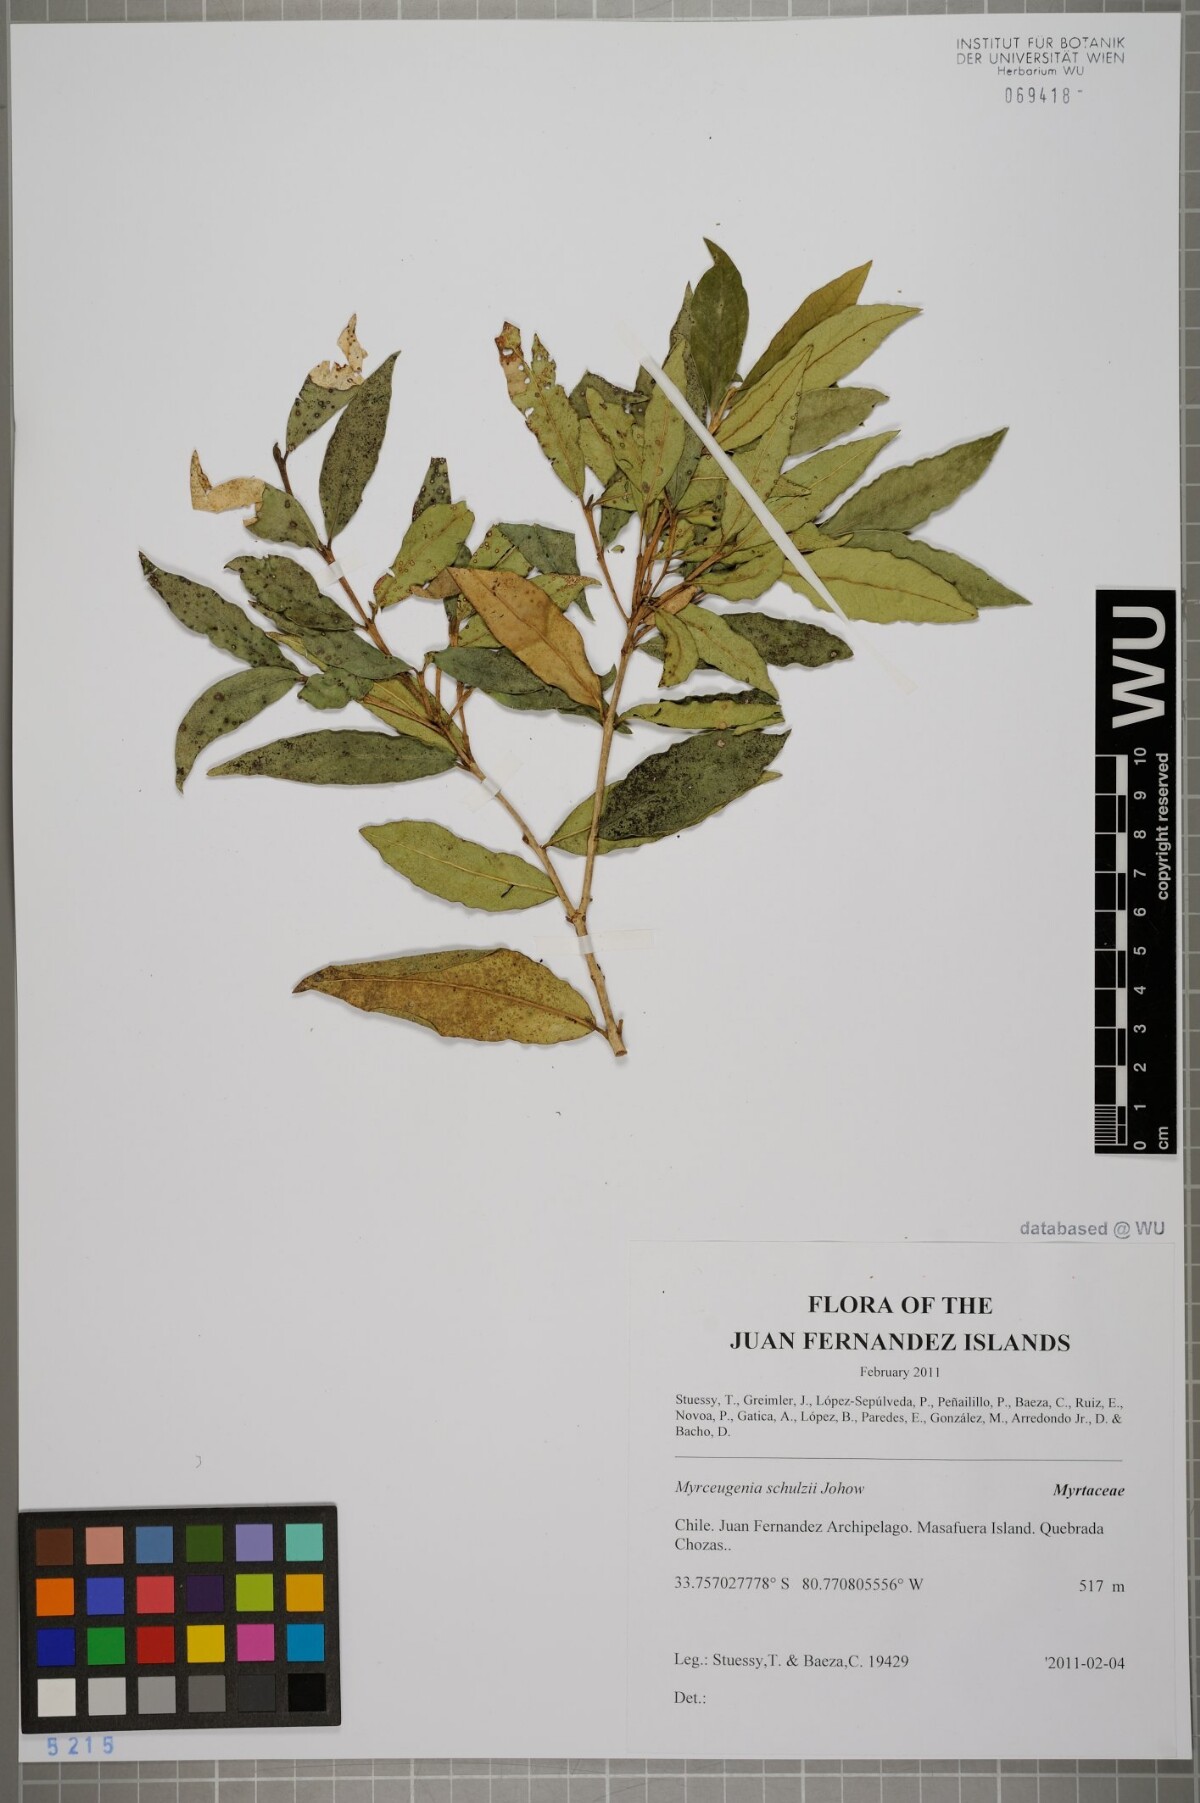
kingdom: Plantae
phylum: Tracheophyta
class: Magnoliopsida
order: Myrtales
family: Myrtaceae
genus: Myrceugenia
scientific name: Myrceugenia schulzei
